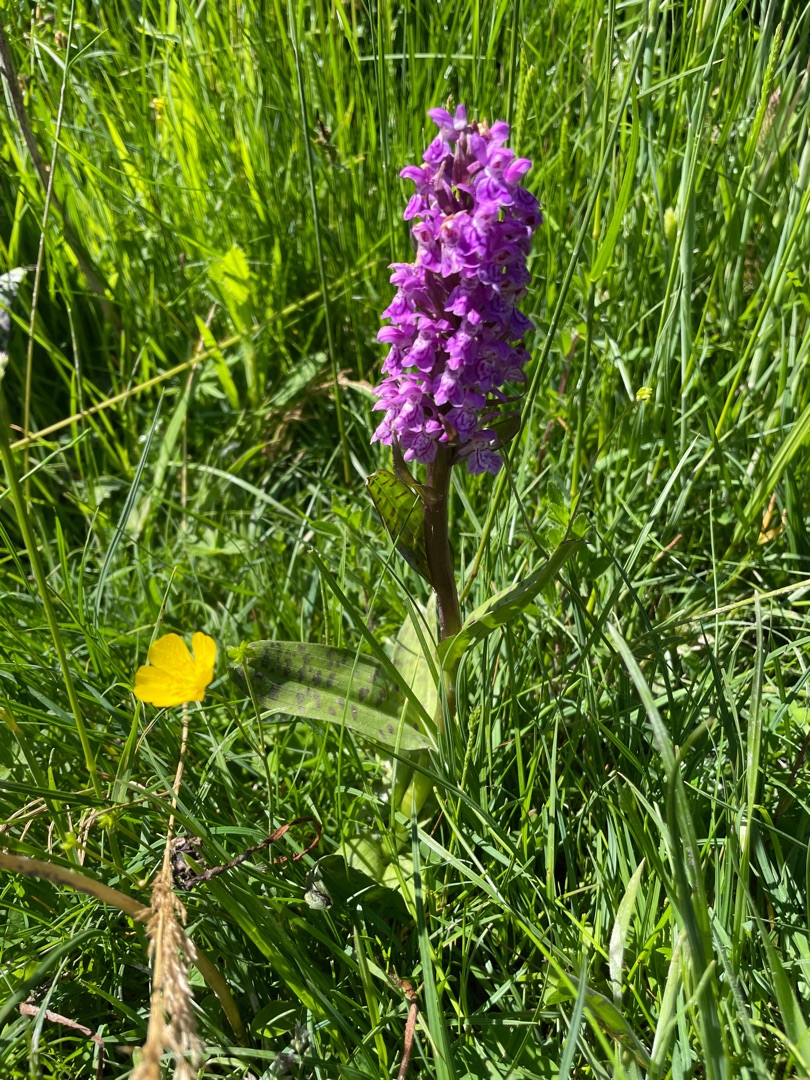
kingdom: Plantae
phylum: Tracheophyta
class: Liliopsida
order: Asparagales
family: Orchidaceae
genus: Dactylorhiza
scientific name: Dactylorhiza majalis
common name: Maj-gøgeurt
